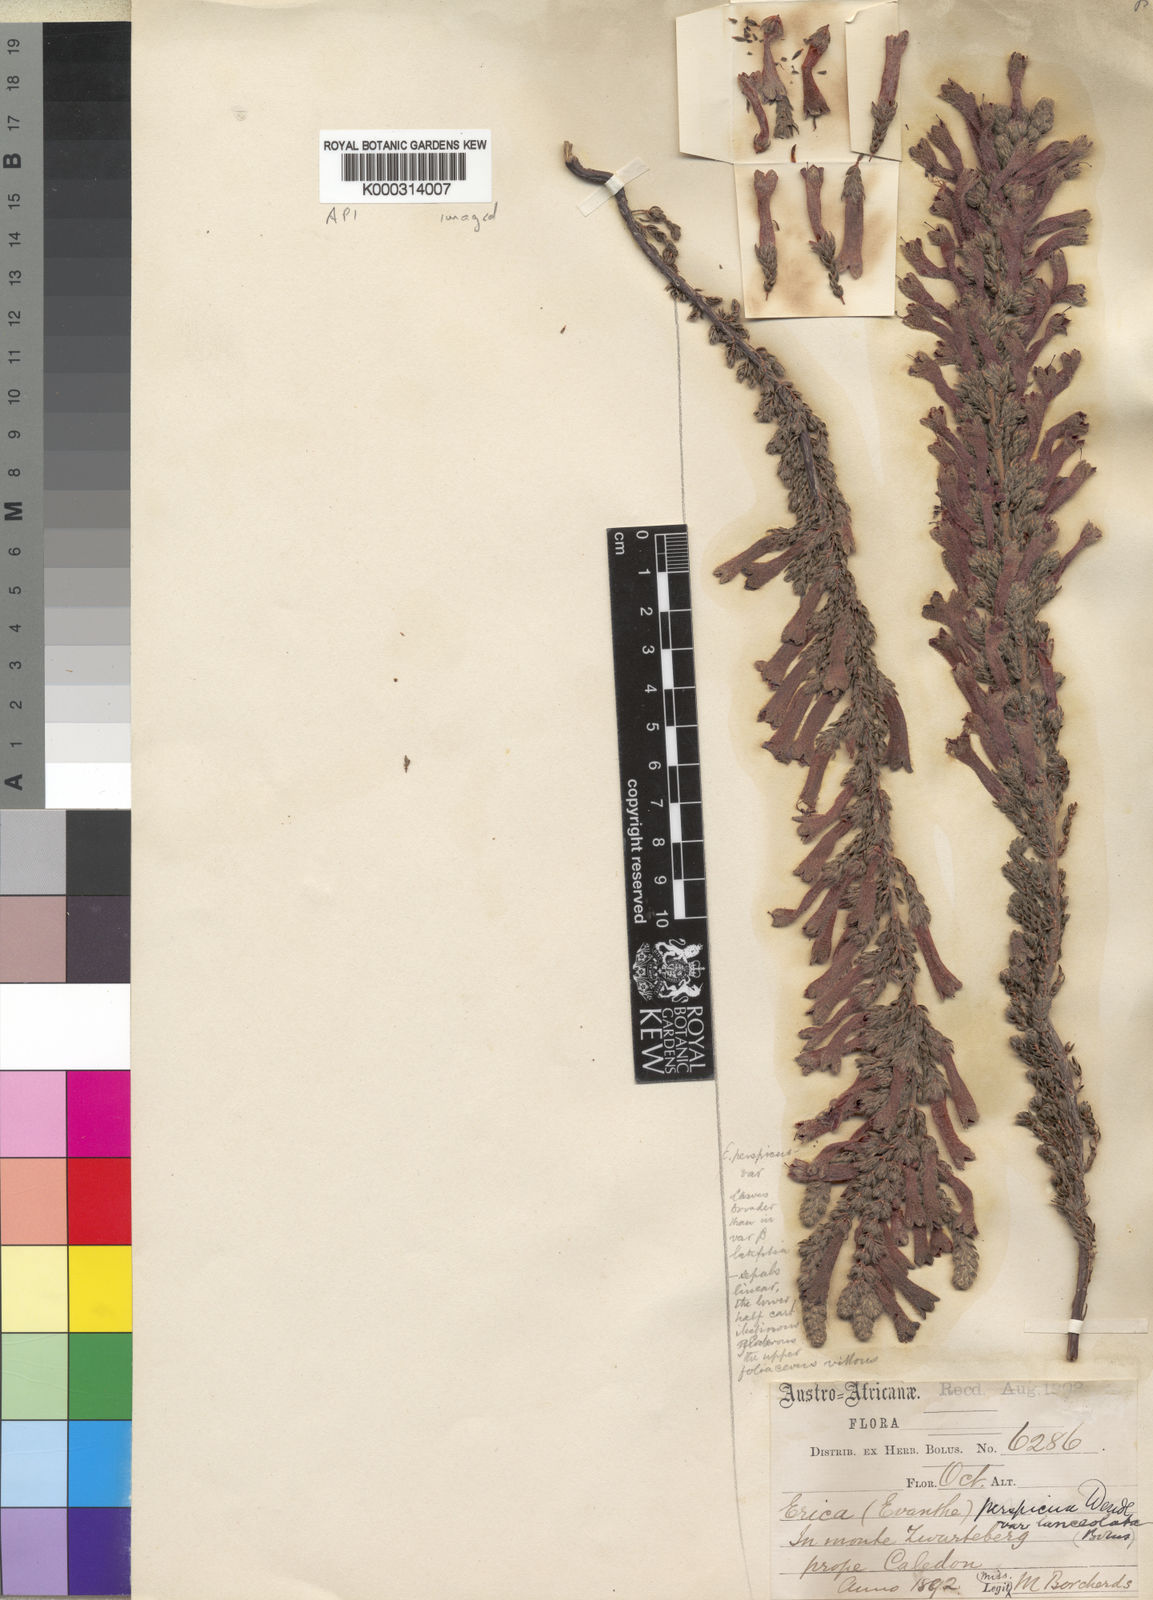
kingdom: Plantae
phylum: Tracheophyta
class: Magnoliopsida
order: Ericales
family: Ericaceae
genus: Erica
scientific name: Erica macowanii
